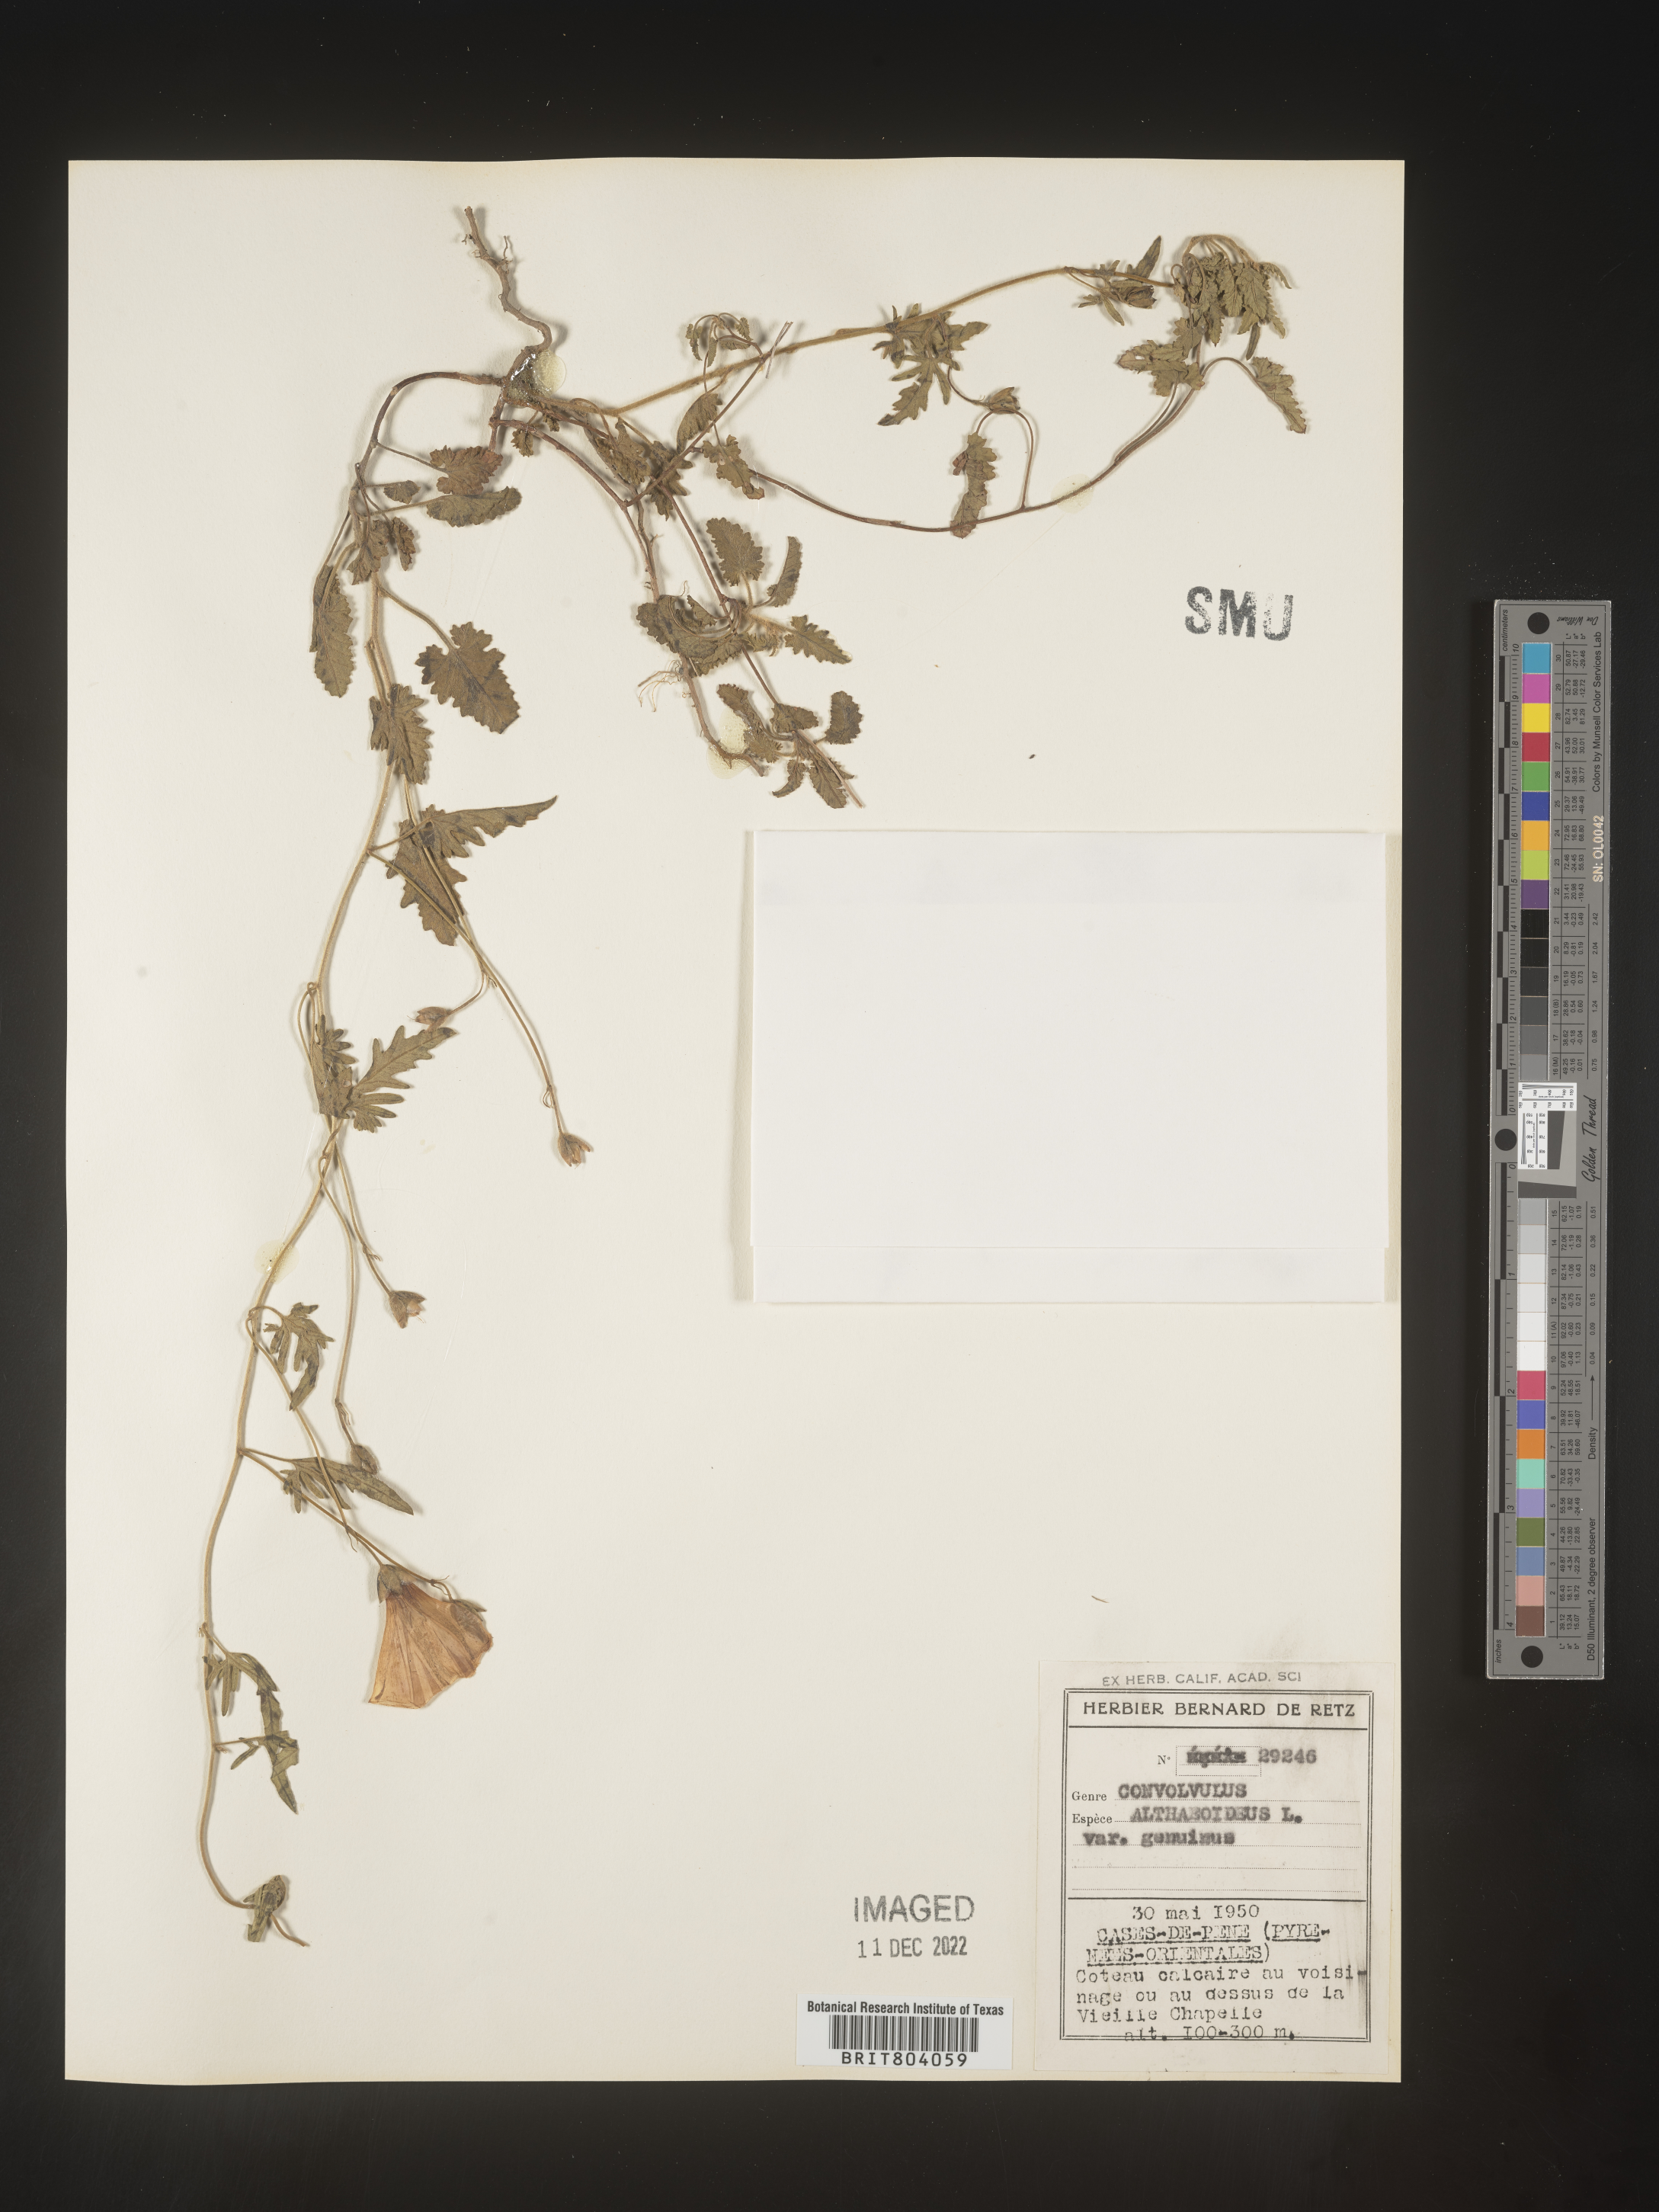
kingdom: Plantae
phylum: Tracheophyta
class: Magnoliopsida
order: Solanales
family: Convolvulaceae
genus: Convolvulus
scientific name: Convolvulus
